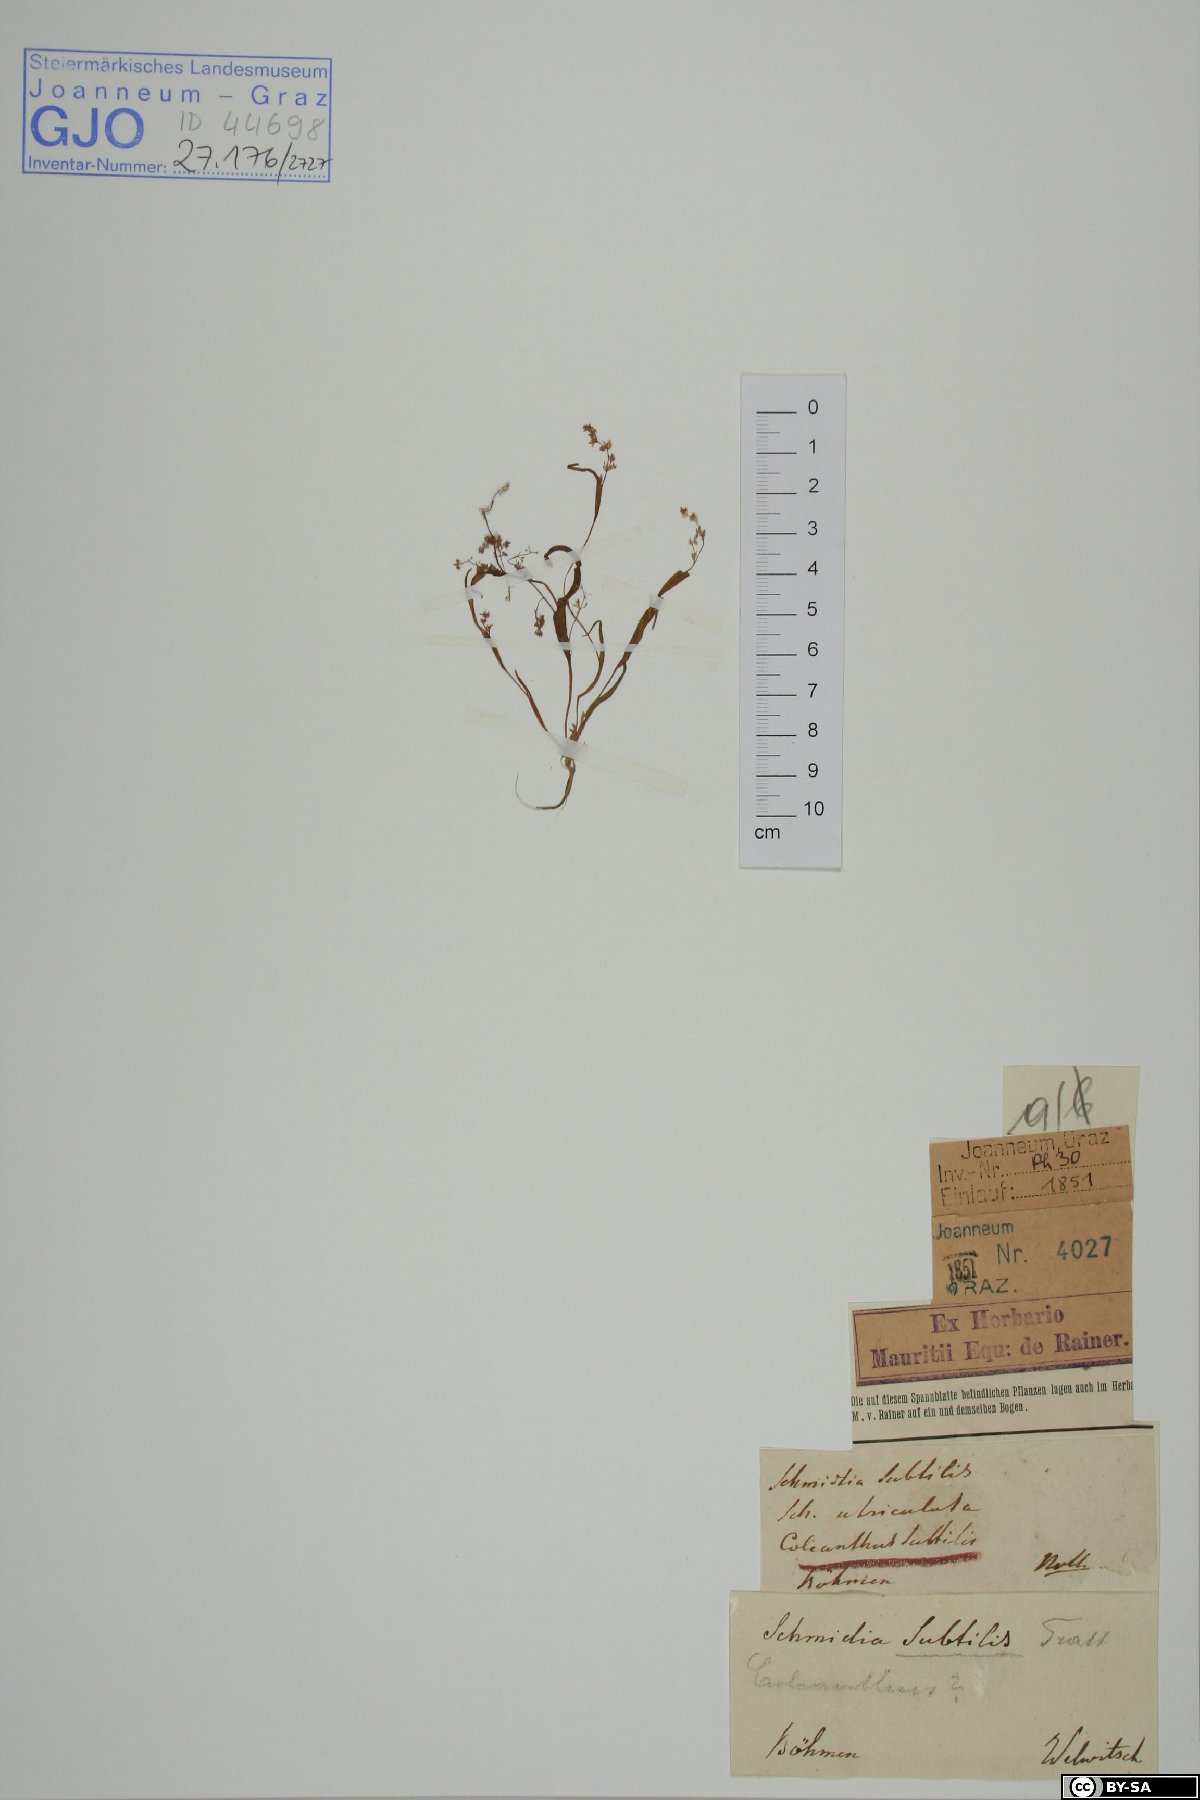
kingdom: Plantae
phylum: Tracheophyta
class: Liliopsida
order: Poales
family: Poaceae
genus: Coleanthus
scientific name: Coleanthus subtilis
